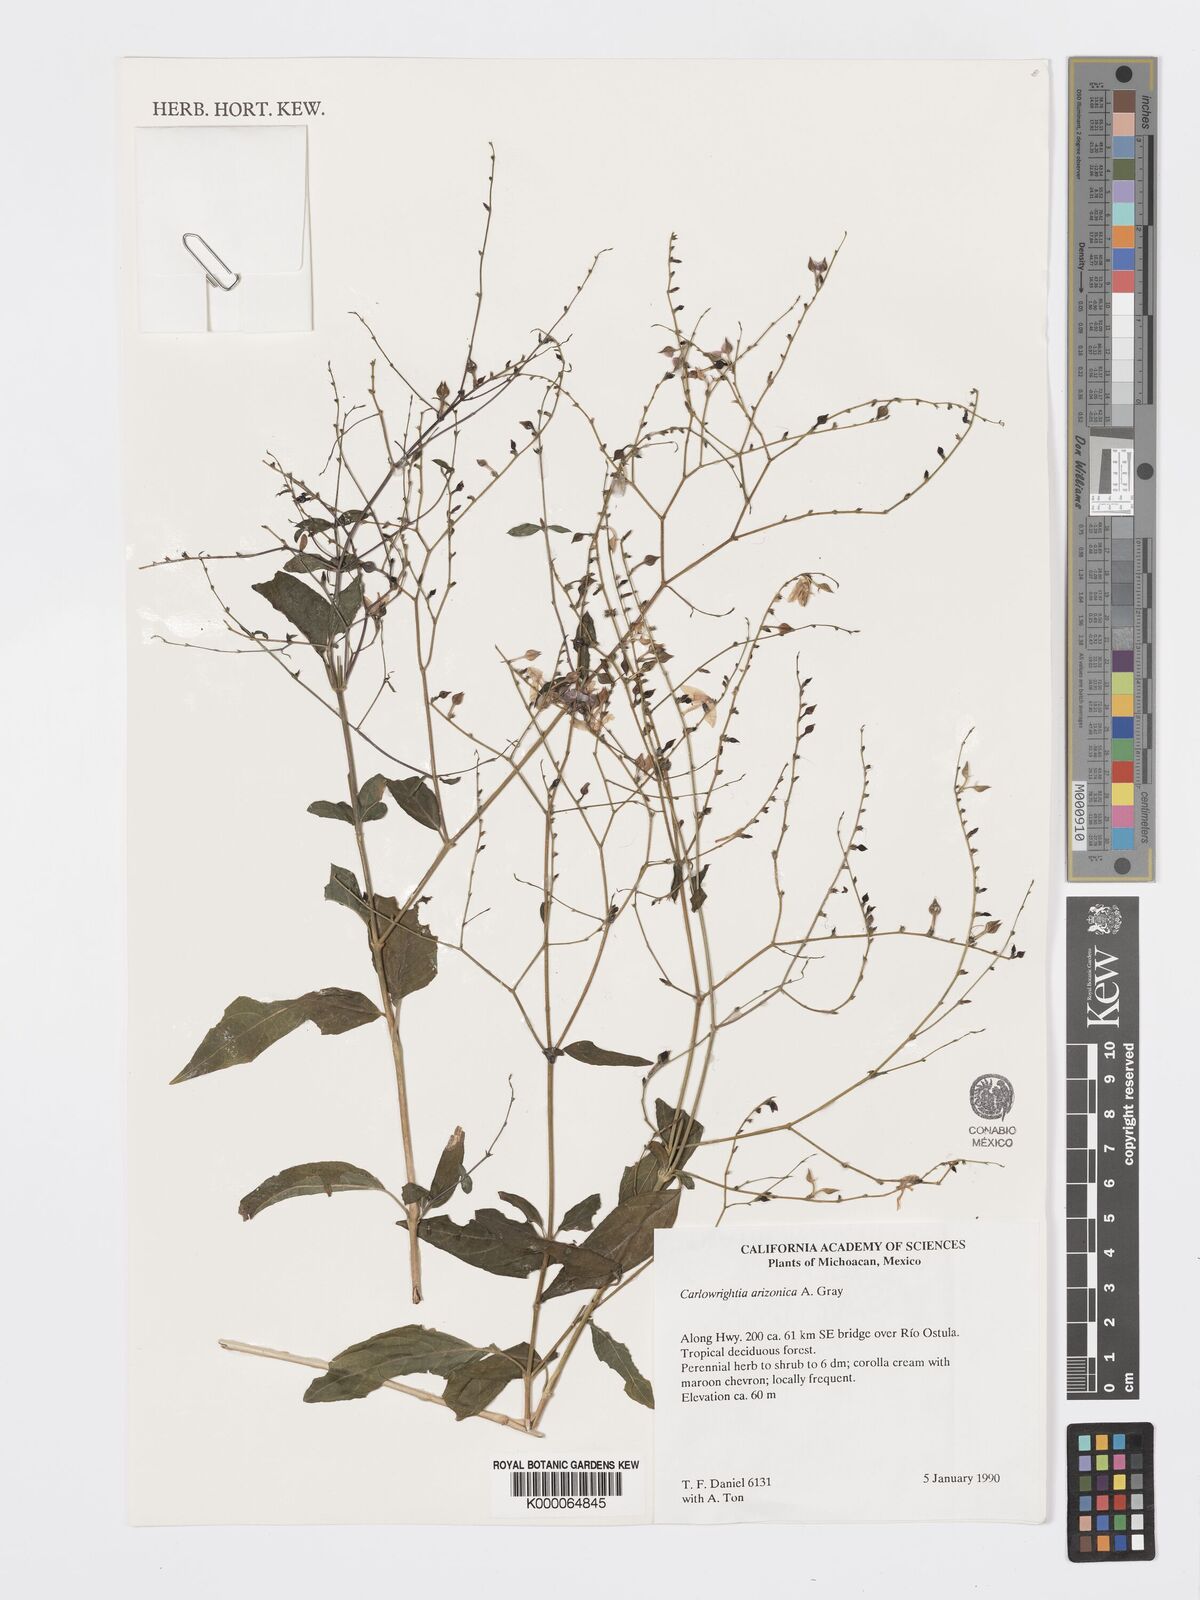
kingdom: Plantae
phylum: Tracheophyta
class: Magnoliopsida
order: Lamiales
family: Acanthaceae
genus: Carlowrightia
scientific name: Carlowrightia arizonica
